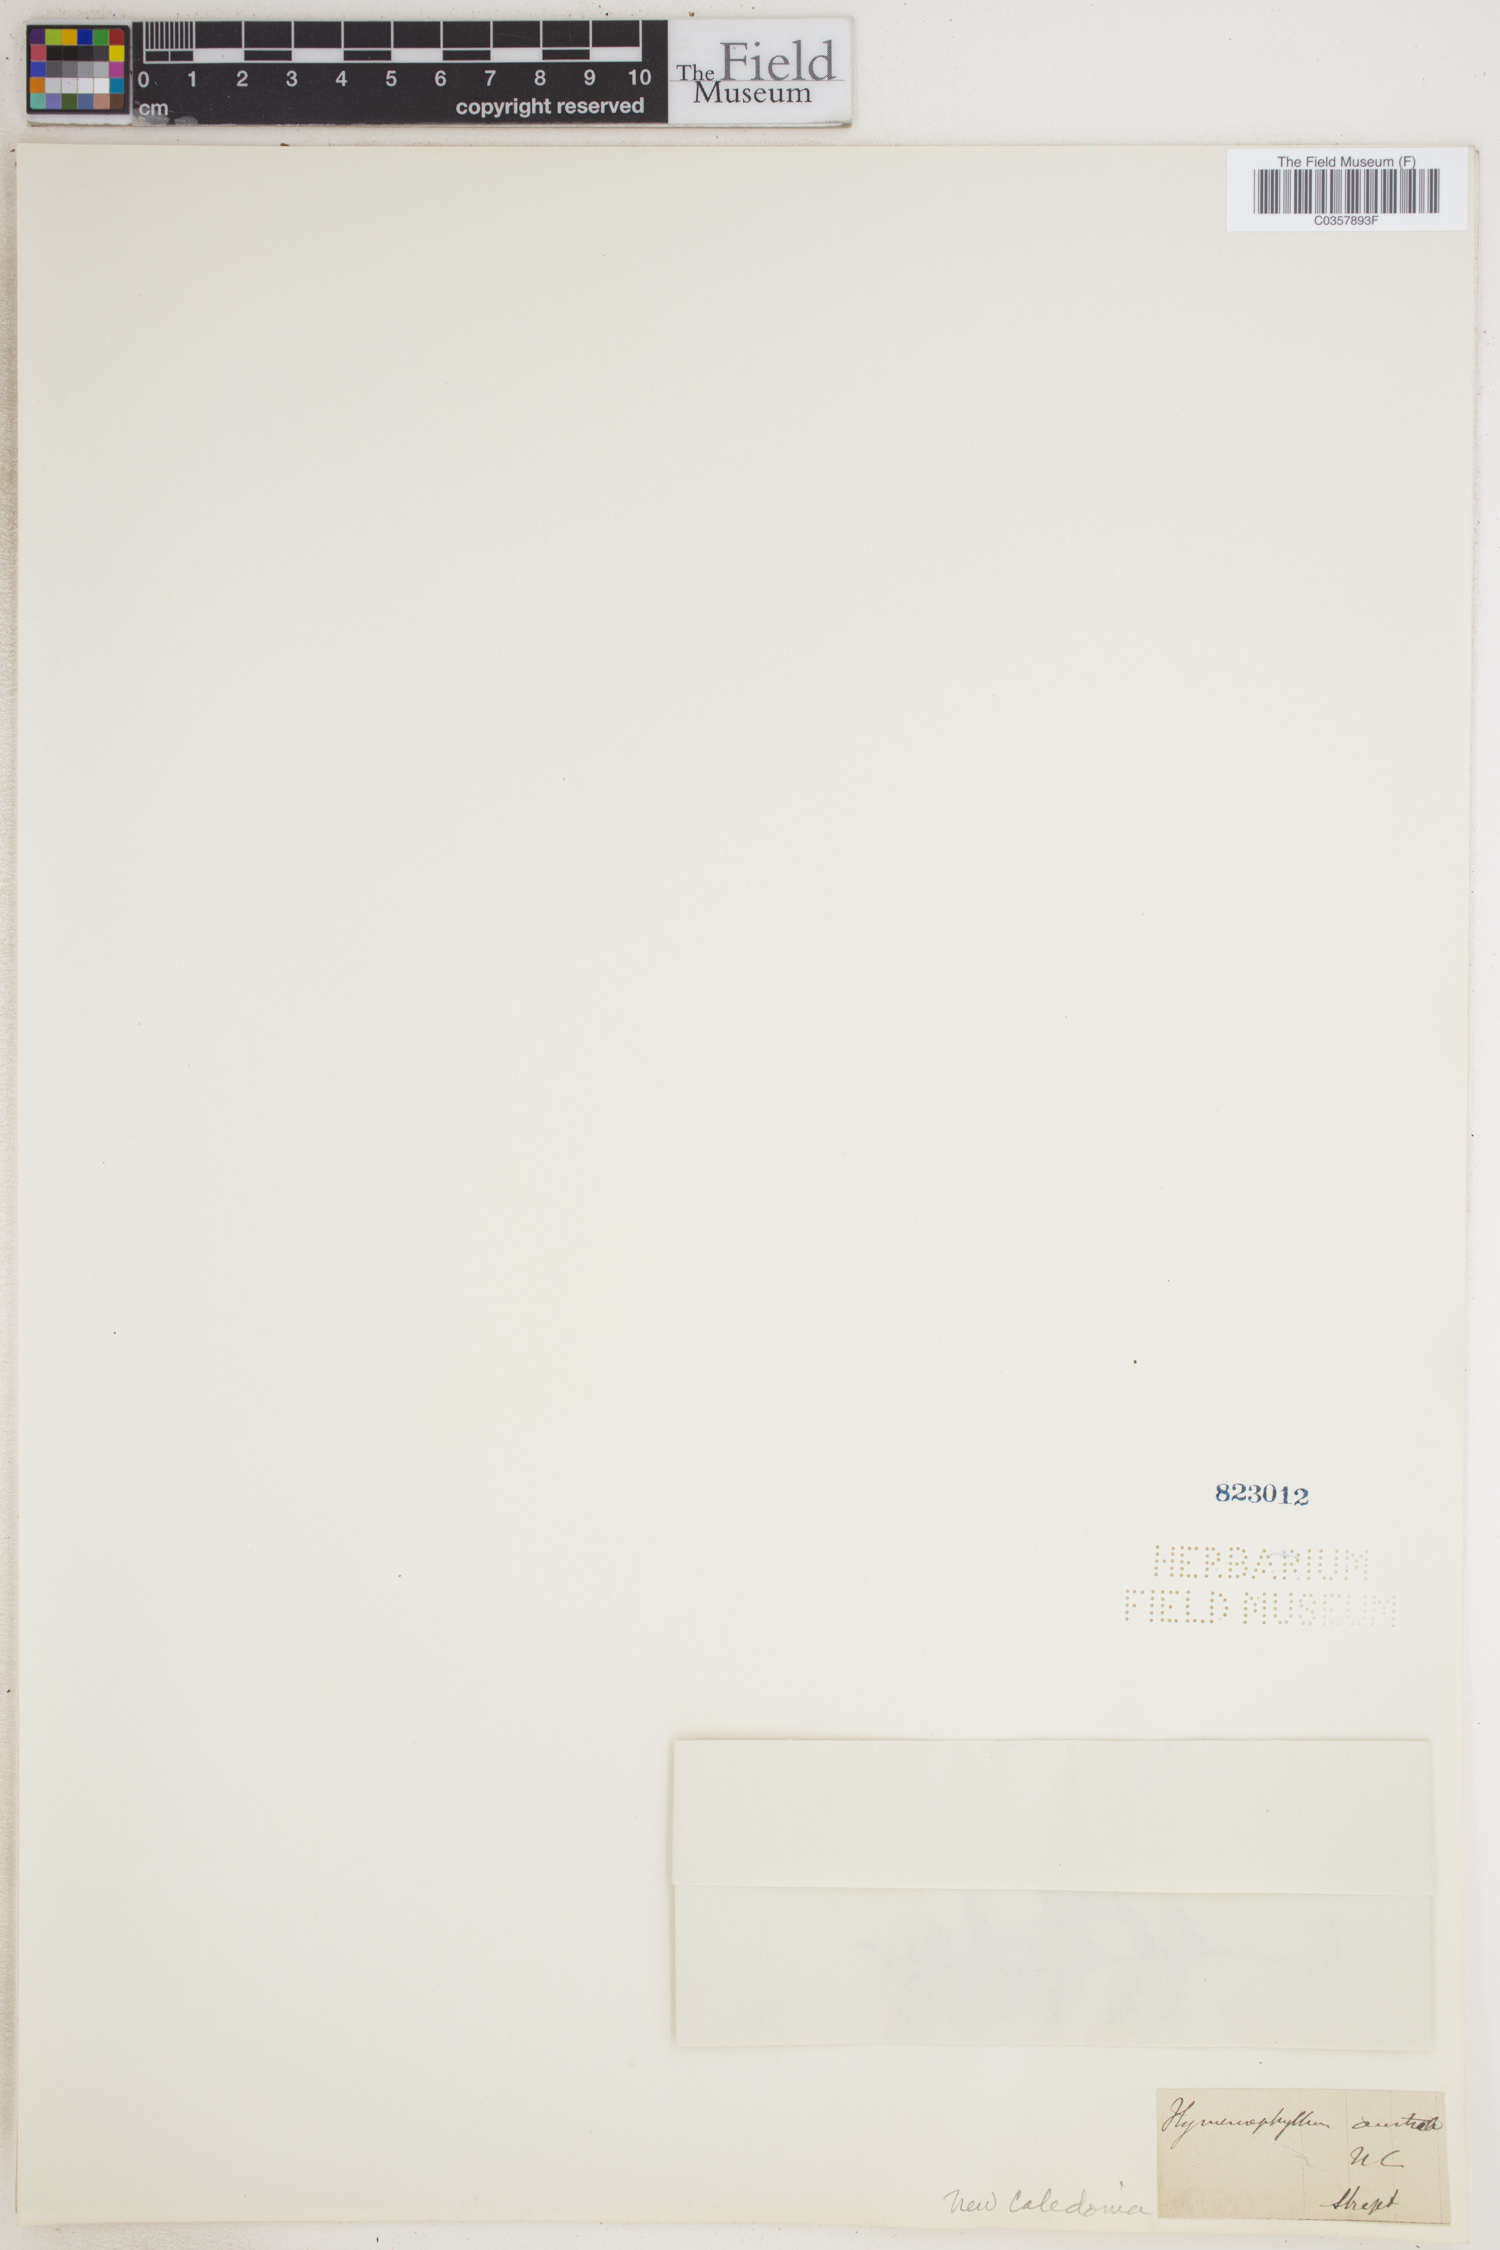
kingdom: Plantae
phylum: Tracheophyta
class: Polypodiopsida
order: Hymenophyllales
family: Hymenophyllaceae
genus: Hymenophyllum
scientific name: Hymenophyllum australe
